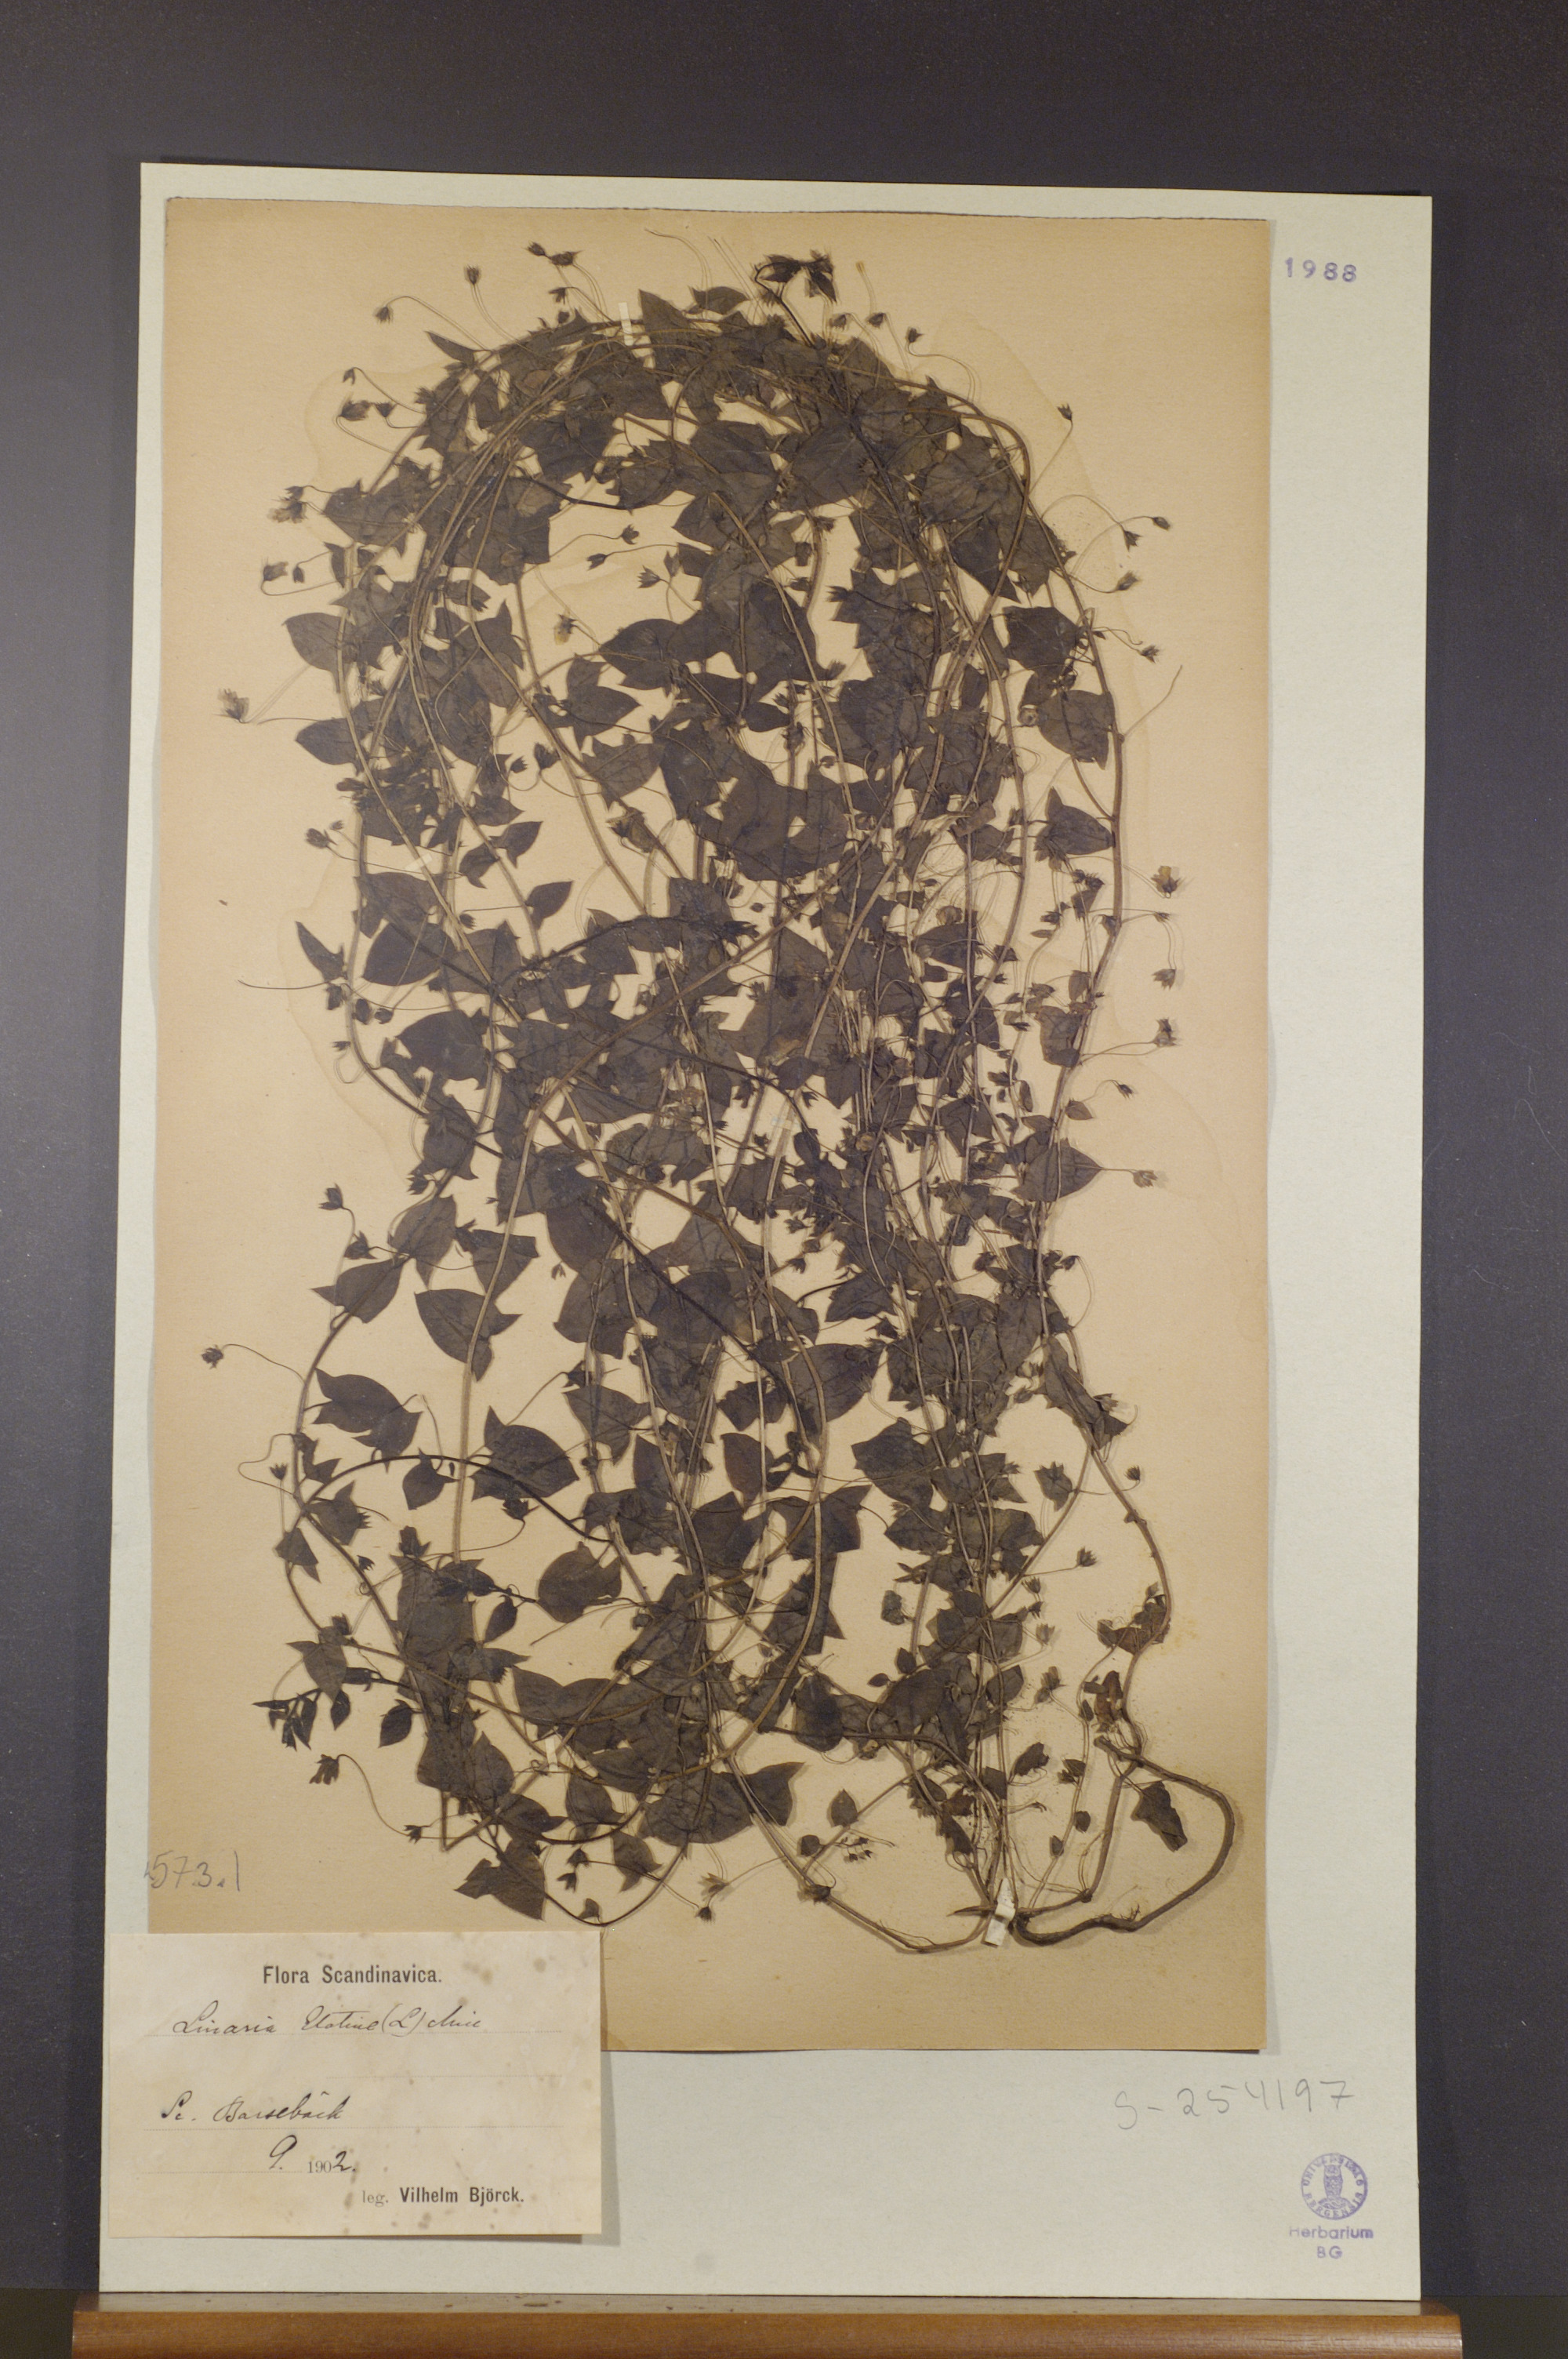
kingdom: Plantae
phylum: Tracheophyta
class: Magnoliopsida
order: Lamiales
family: Plantaginaceae
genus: Kickxia
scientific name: Kickxia elatine
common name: Sharp-leaved fluellen
